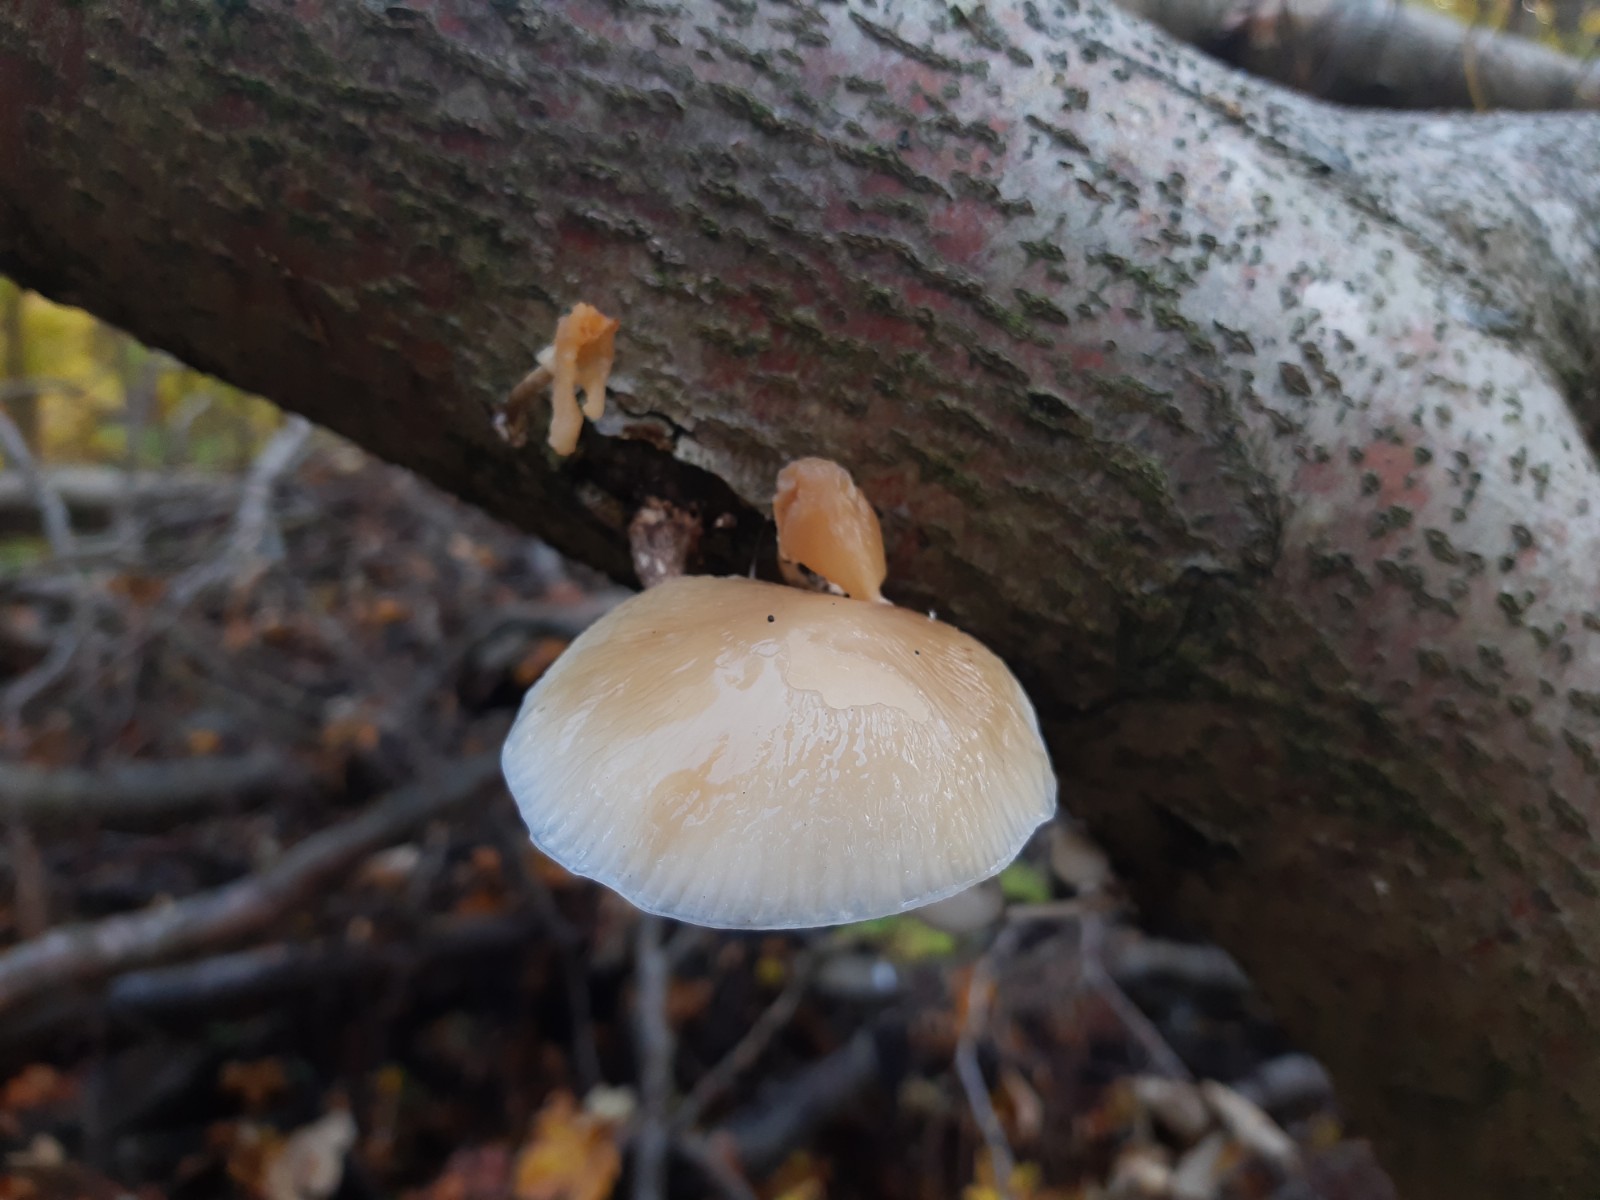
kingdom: Fungi
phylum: Basidiomycota
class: Agaricomycetes
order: Agaricales
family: Physalacriaceae
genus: Mucidula
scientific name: Mucidula mucida
